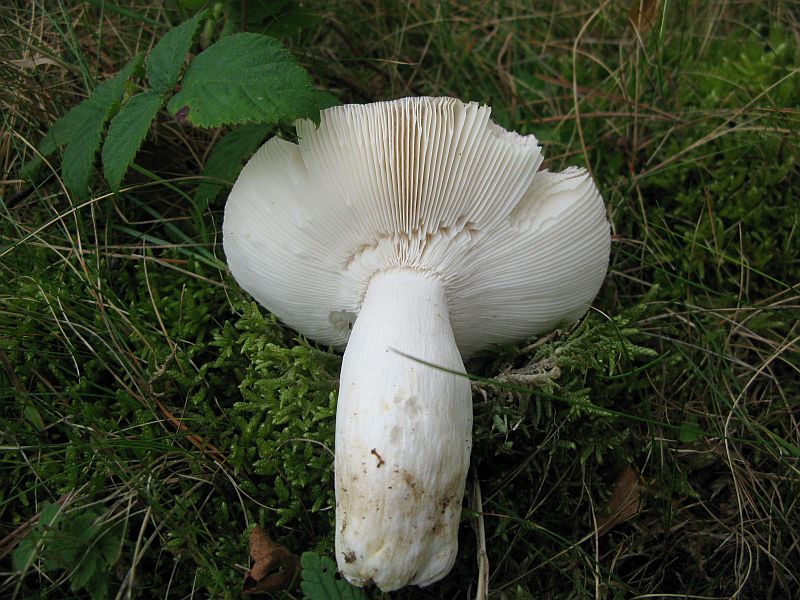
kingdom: Fungi
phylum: Basidiomycota
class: Agaricomycetes
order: Russulales
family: Russulaceae
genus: Russula
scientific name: Russula vesca
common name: spiselig skørhat
